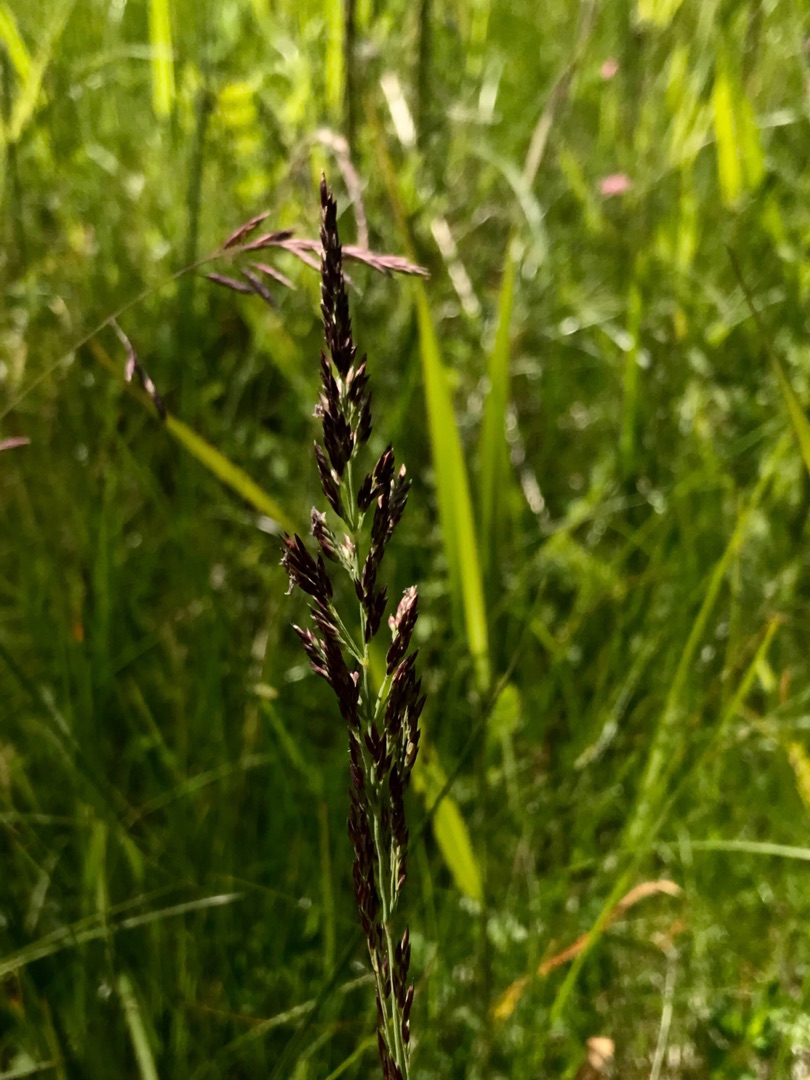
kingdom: Plantae
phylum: Tracheophyta
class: Liliopsida
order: Poales
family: Poaceae
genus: Achnatherum
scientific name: Achnatherum calamagrostis
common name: Stivtoppet rørhvene
